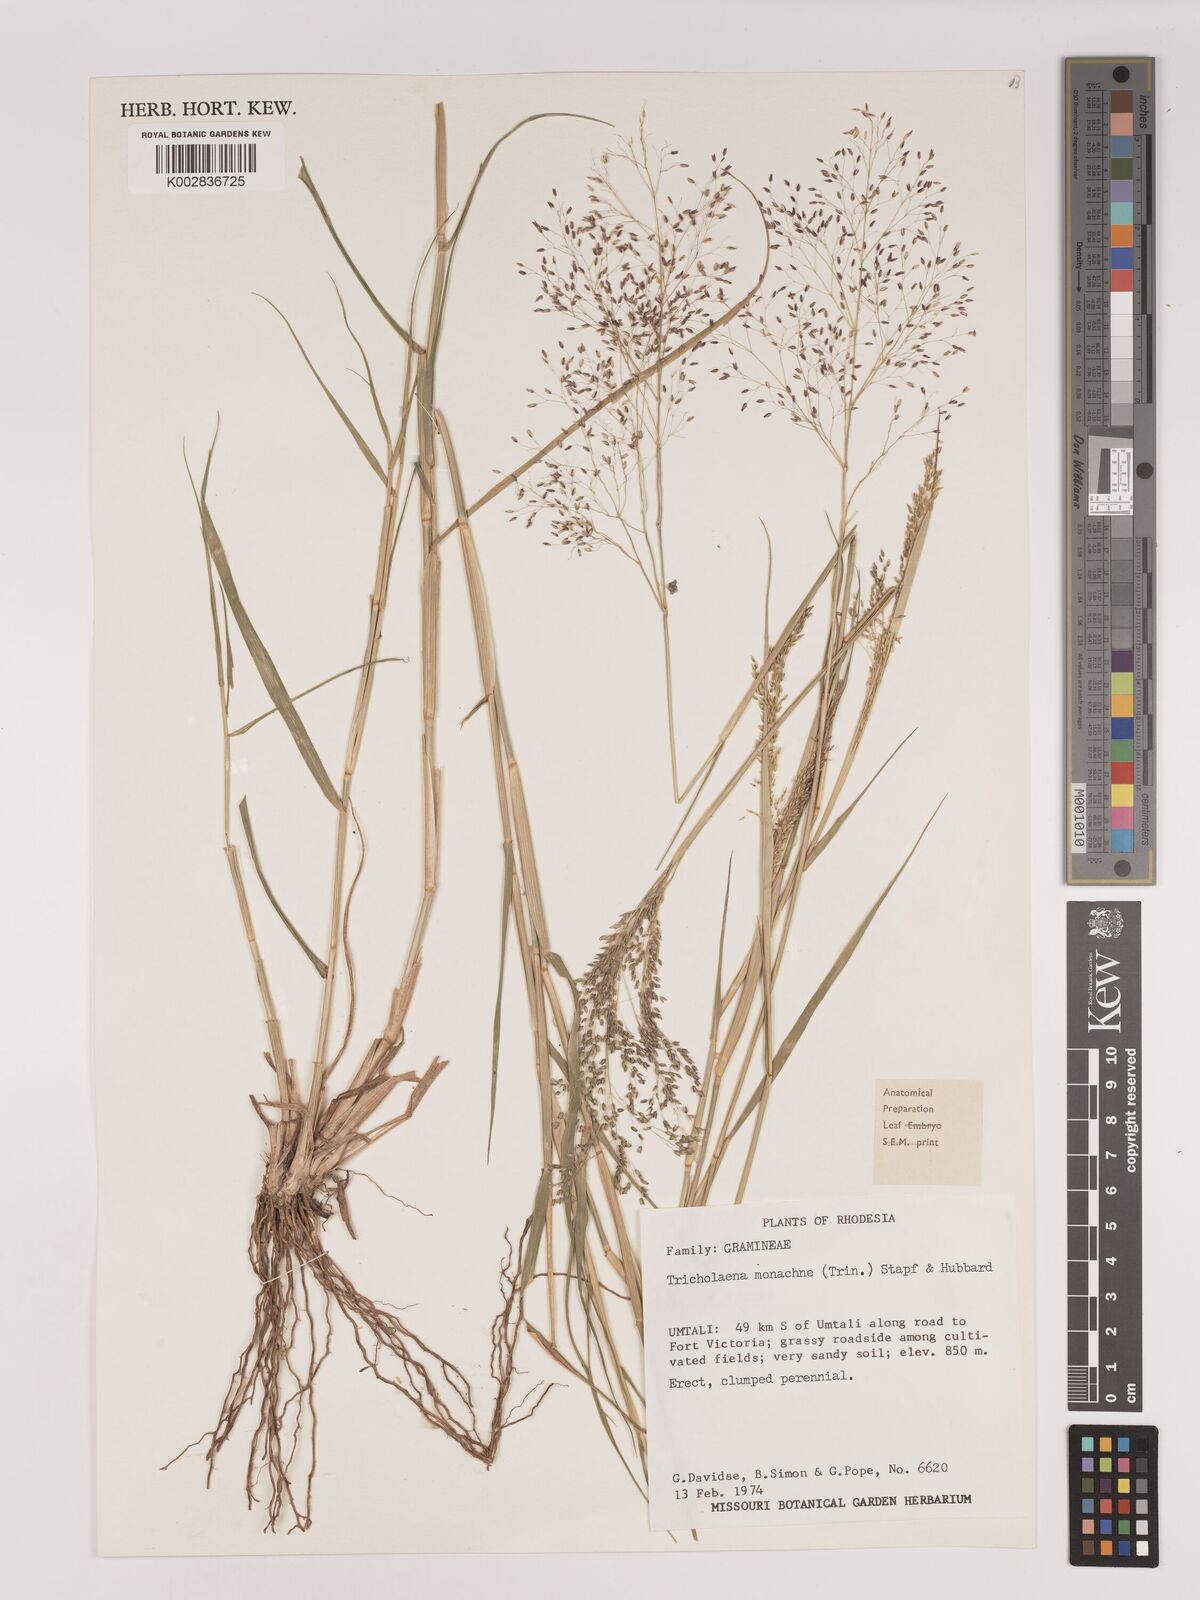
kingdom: Plantae
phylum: Tracheophyta
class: Liliopsida
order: Poales
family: Poaceae
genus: Tricholaena
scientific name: Tricholaena monachne
